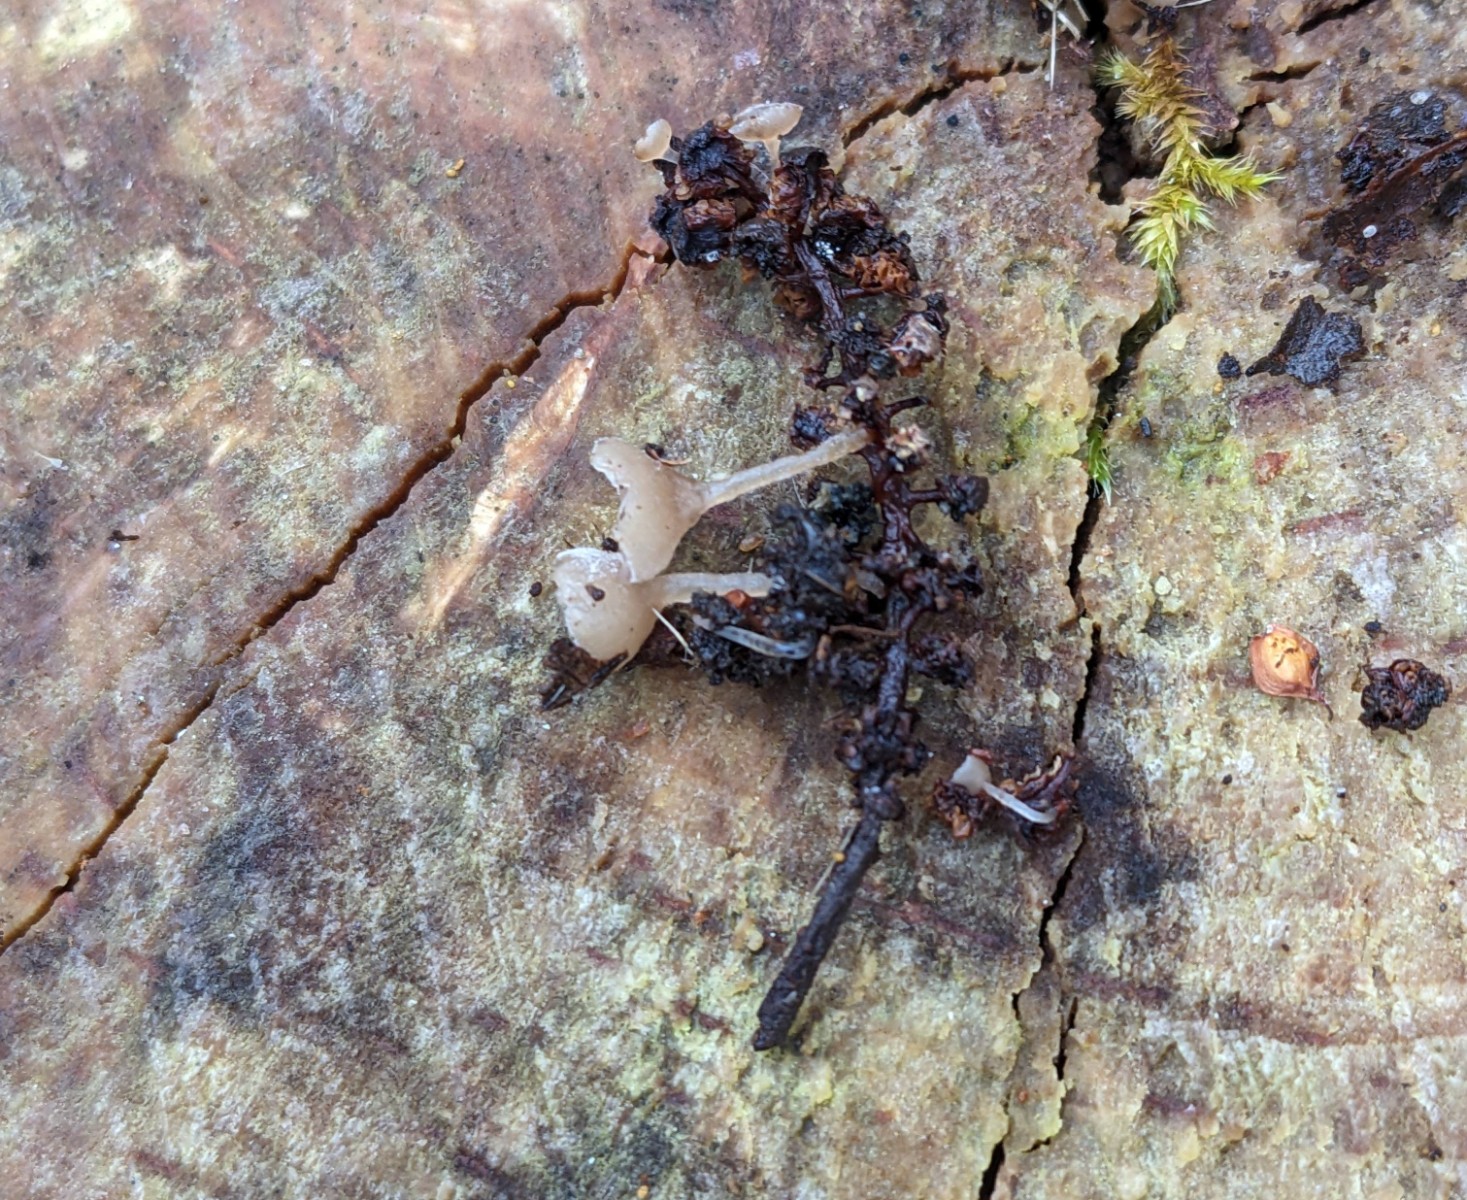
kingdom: Fungi
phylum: Ascomycota
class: Leotiomycetes
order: Helotiales
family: Sclerotiniaceae
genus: Ciboria
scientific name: Ciboria amentacea
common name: ellerakle-knoldskive
